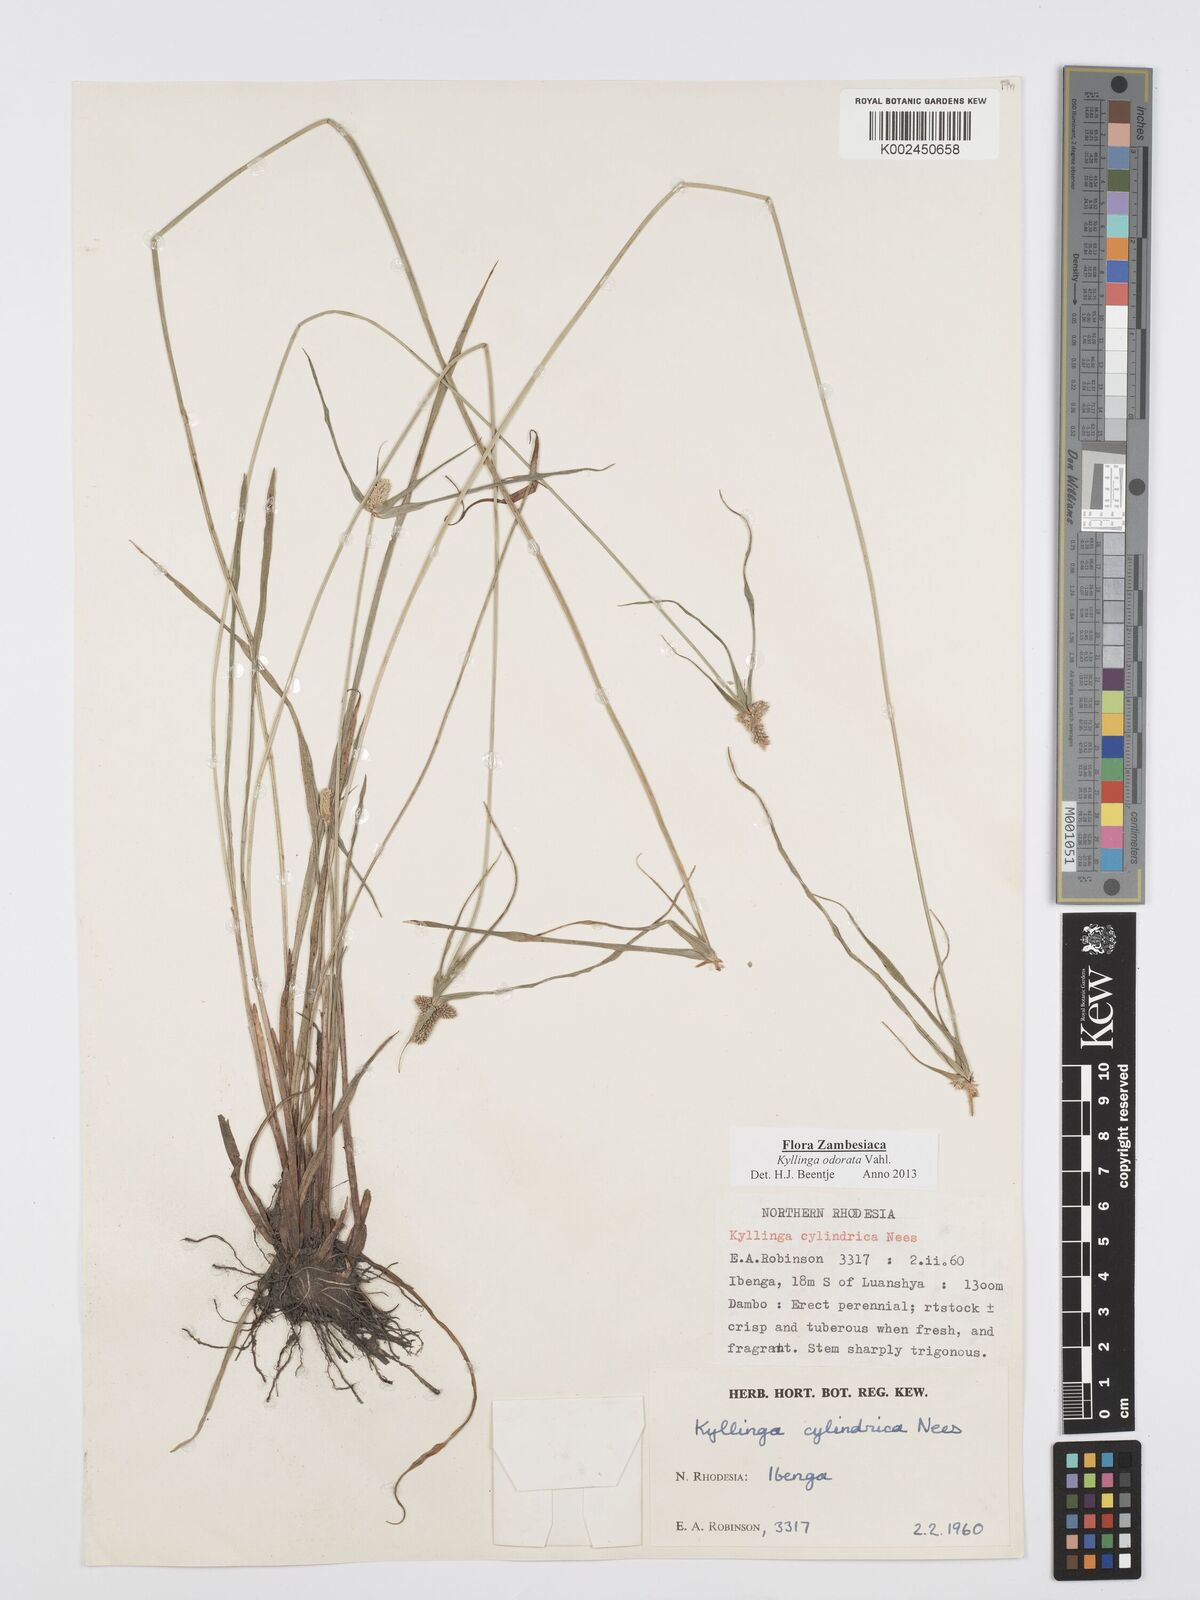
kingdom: Plantae
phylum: Tracheophyta
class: Liliopsida
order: Poales
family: Cyperaceae
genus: Cyperus
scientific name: Cyperus
